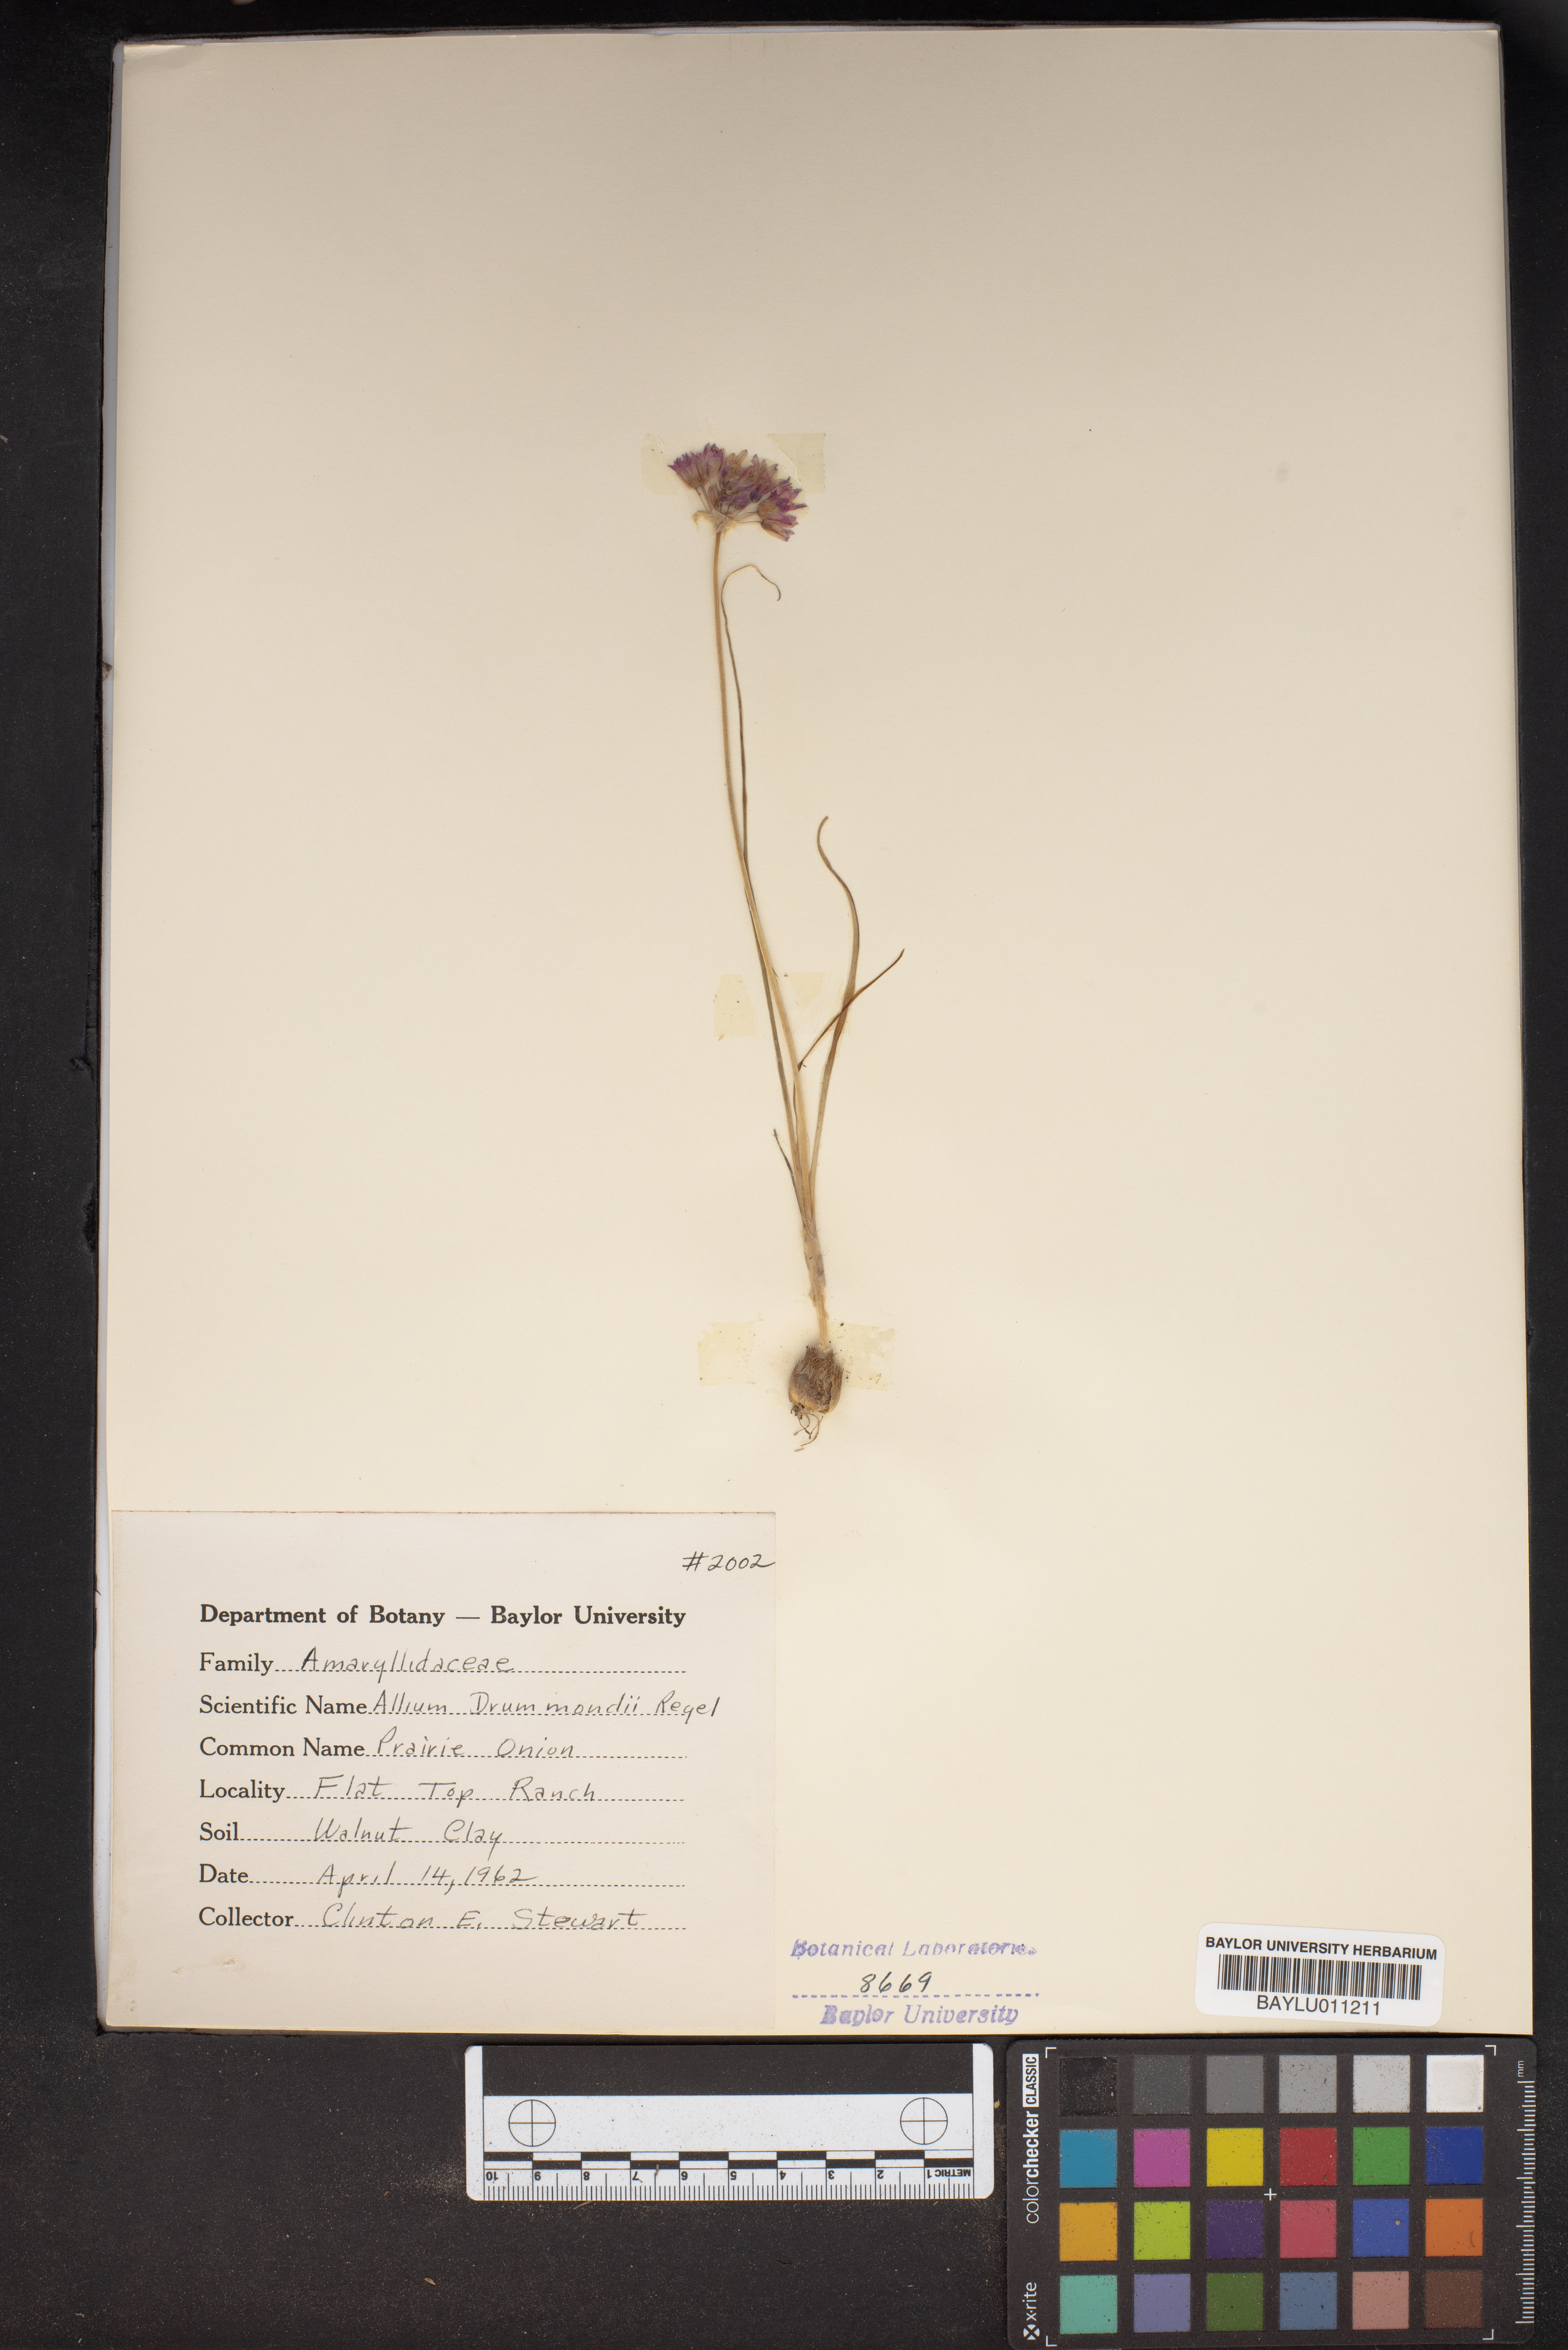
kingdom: Plantae
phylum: Tracheophyta
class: Liliopsida
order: Asparagales
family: Amaryllidaceae
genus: Allium
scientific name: Allium drummondii
